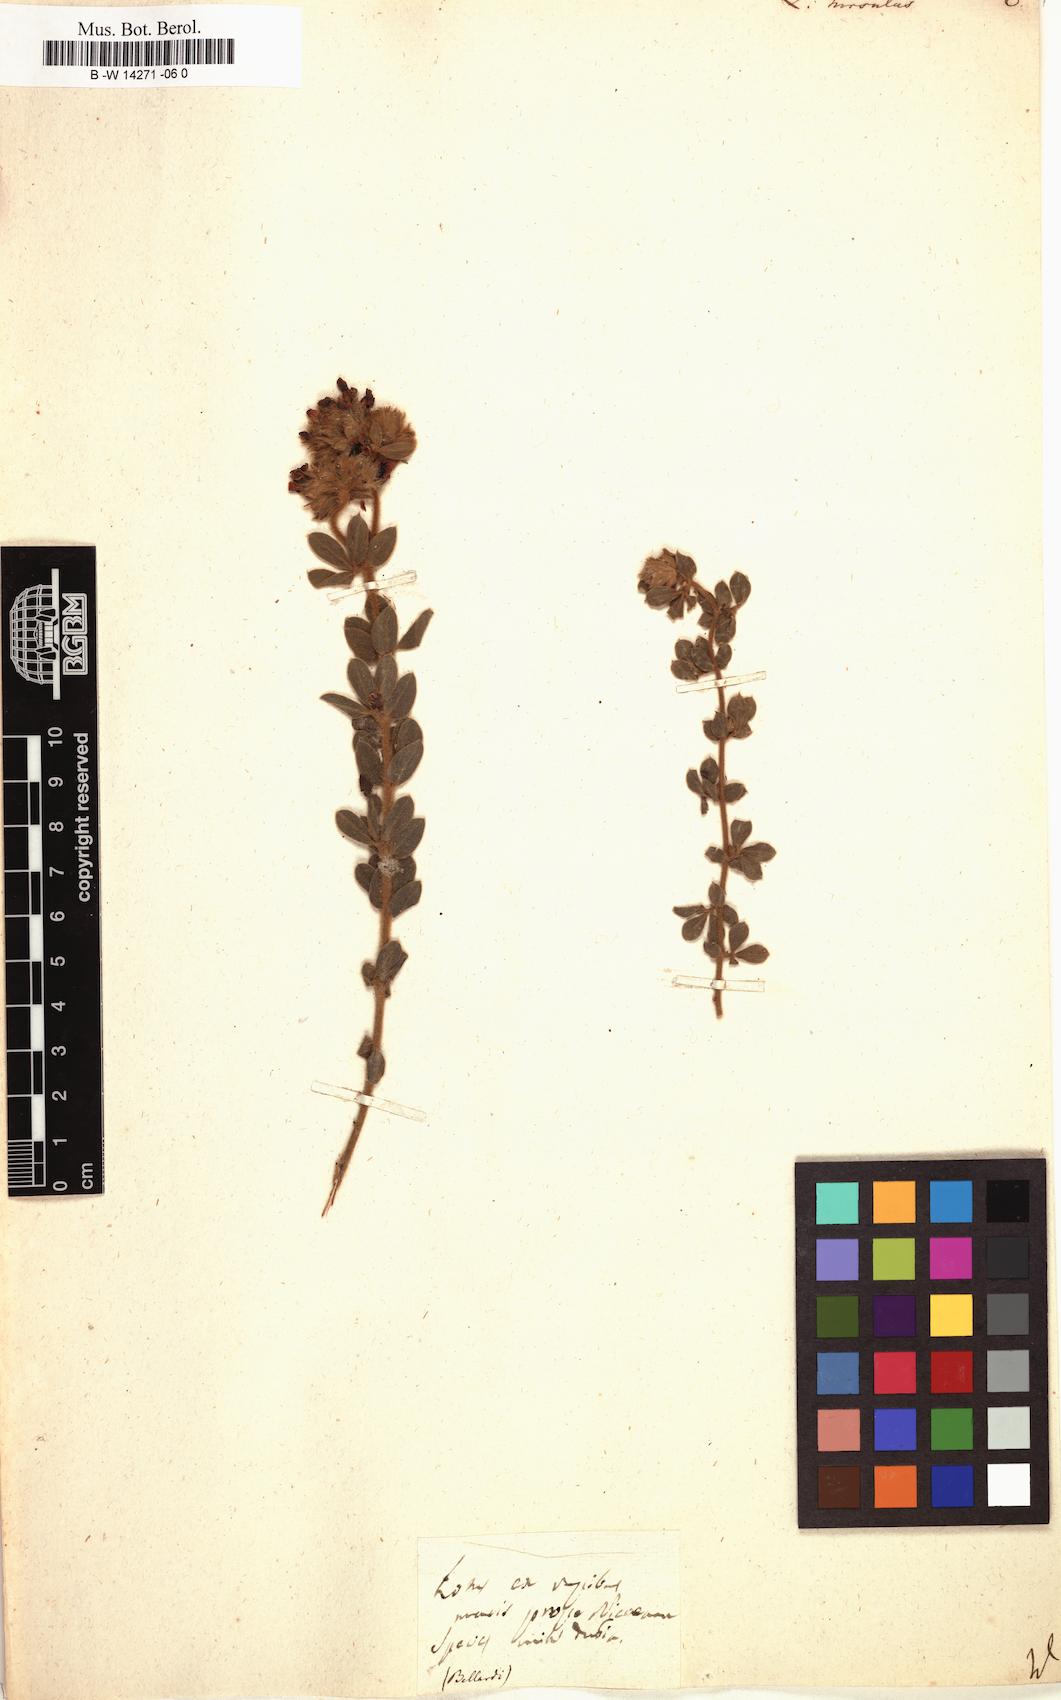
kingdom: Plantae
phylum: Tracheophyta
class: Magnoliopsida
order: Fabales
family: Fabaceae
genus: Lotus
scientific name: Lotus hirsutus
